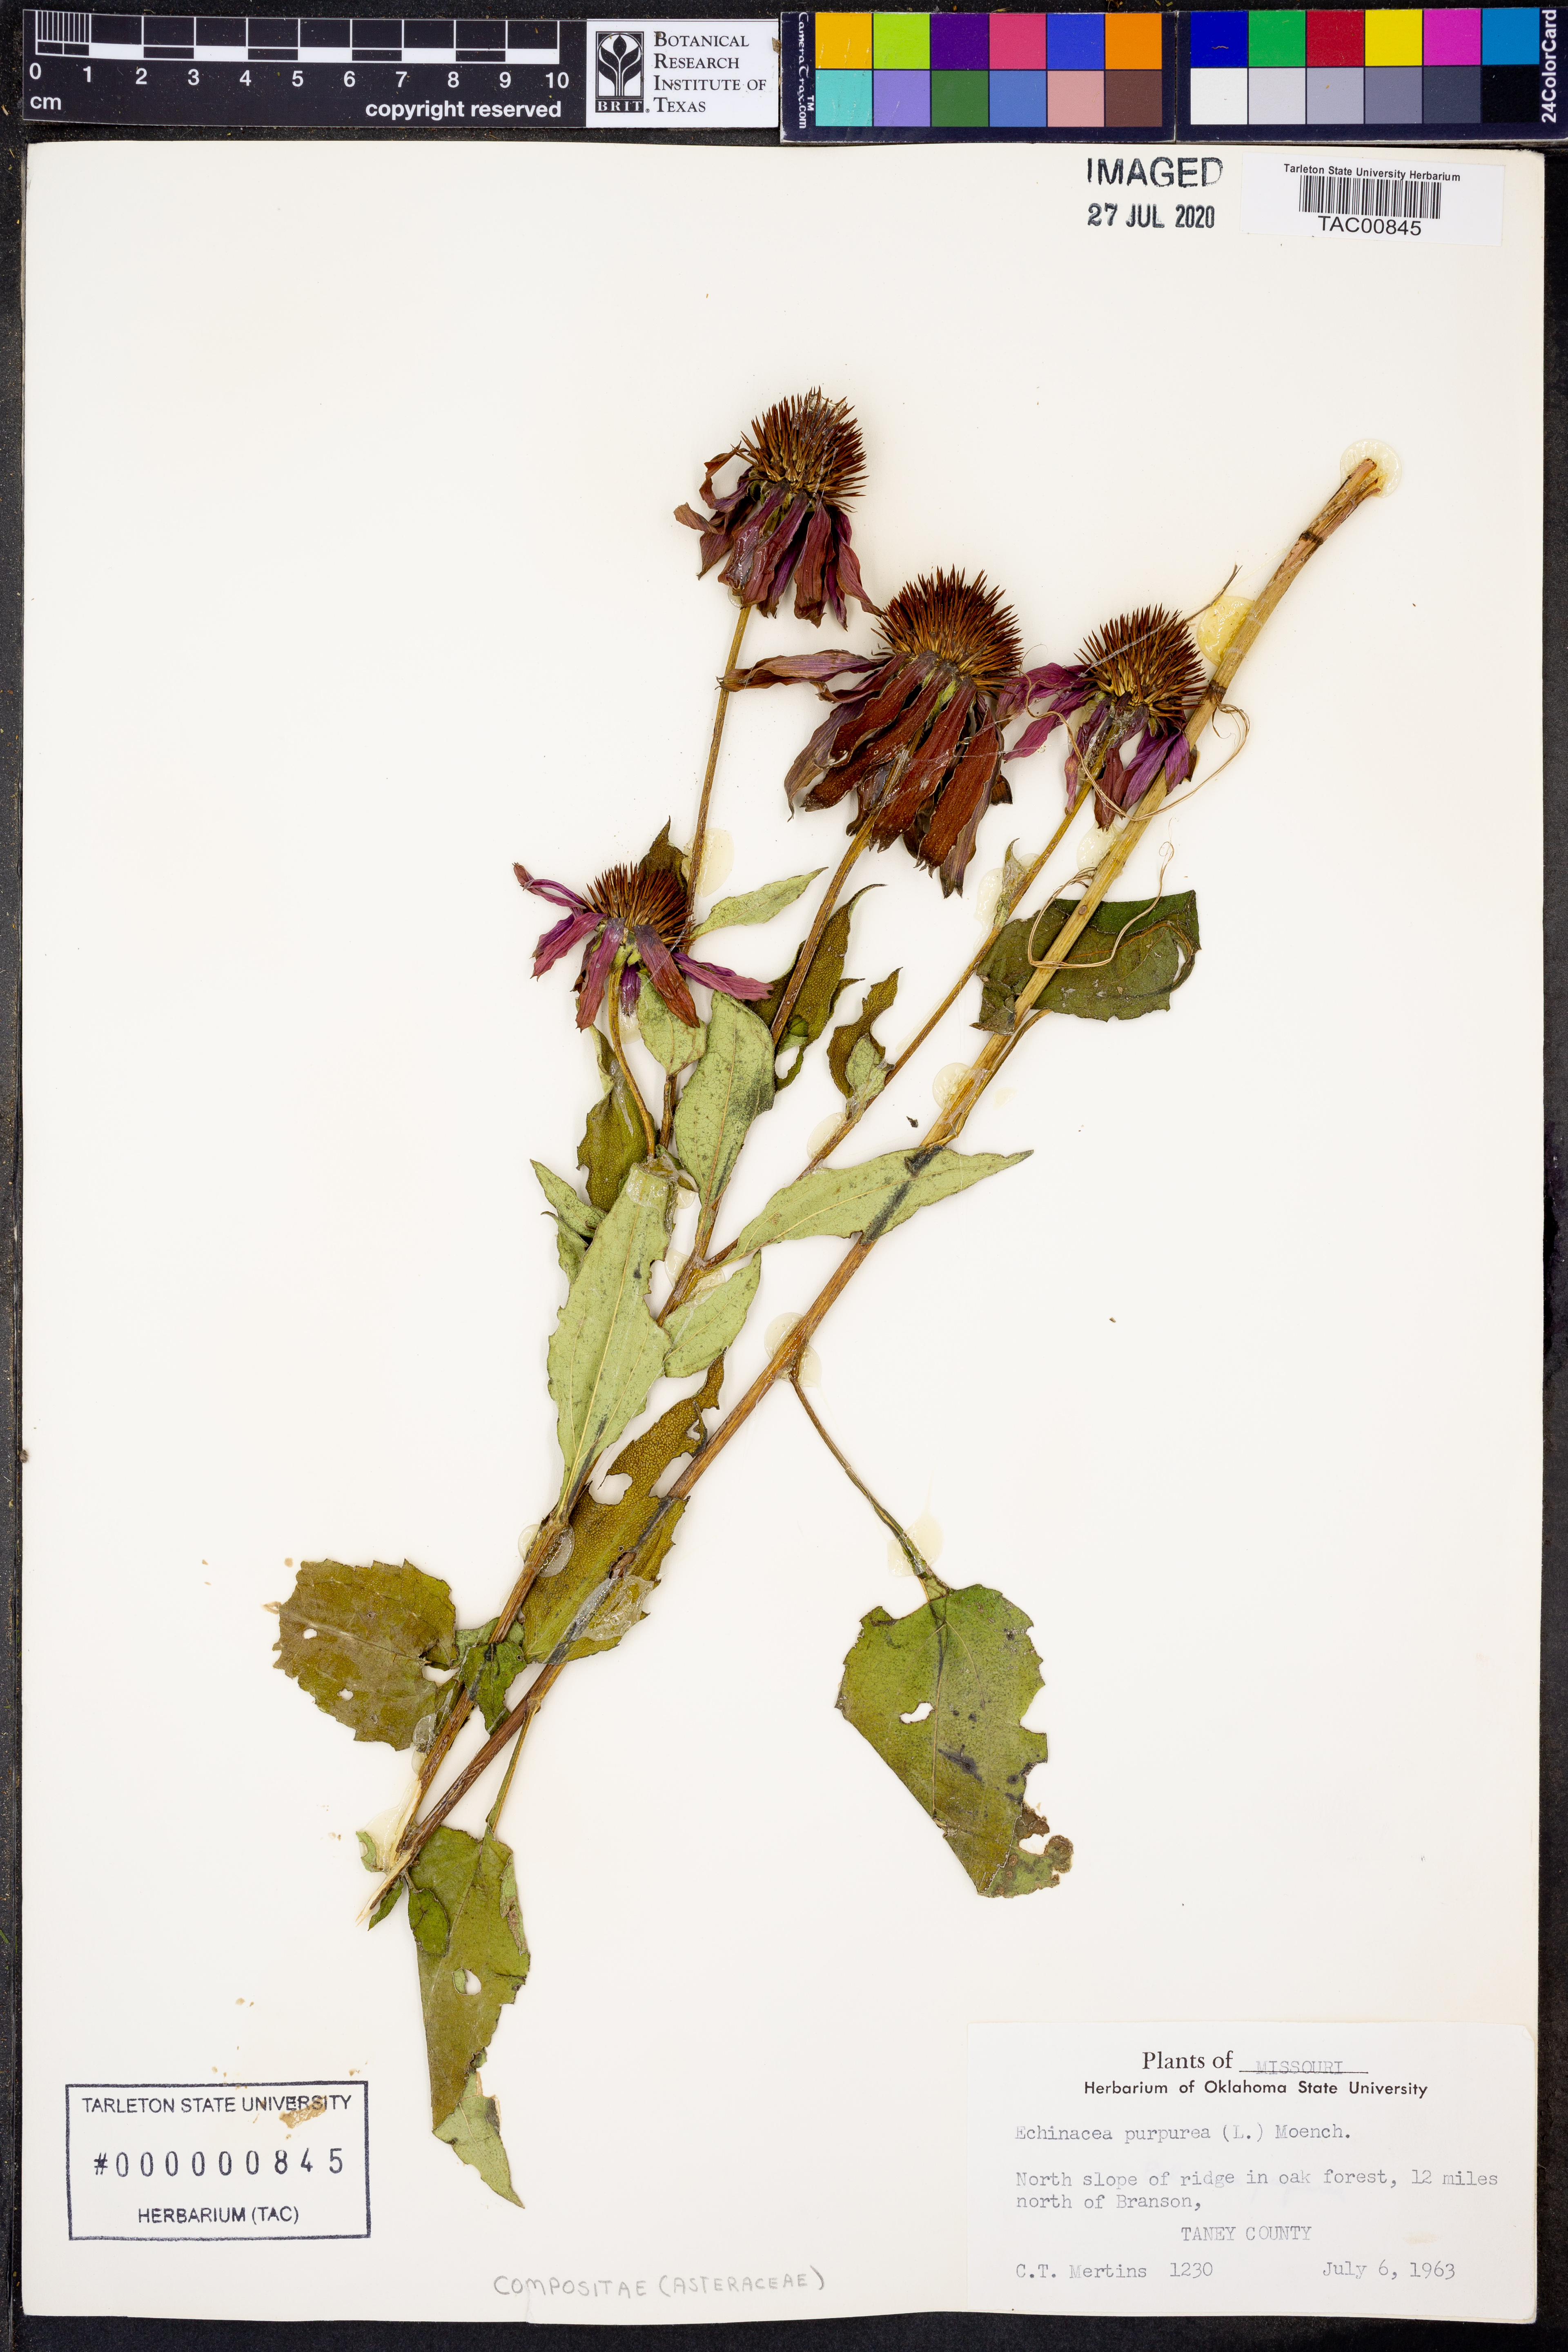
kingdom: Plantae
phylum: Tracheophyta
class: Magnoliopsida
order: Asterales
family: Asteraceae
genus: Echinacea
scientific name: Echinacea purpurea
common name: Broad-leaved purple coneflower
